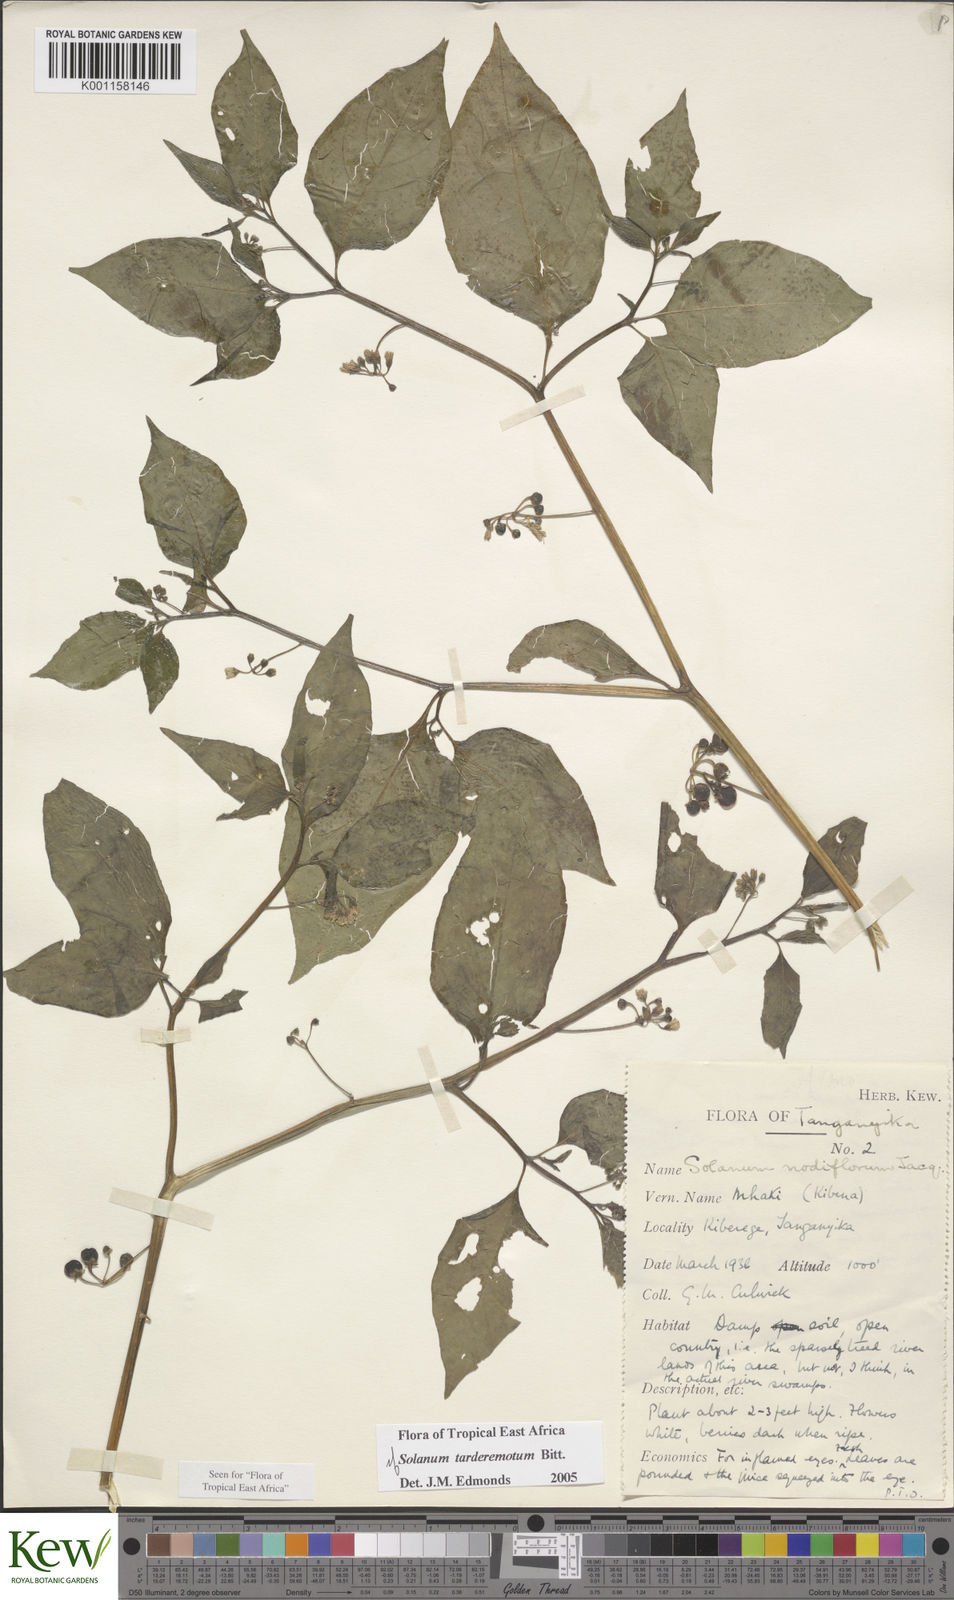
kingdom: Plantae
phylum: Tracheophyta
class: Magnoliopsida
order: Solanales
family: Solanaceae
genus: Solanum
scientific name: Solanum tarderemotum
